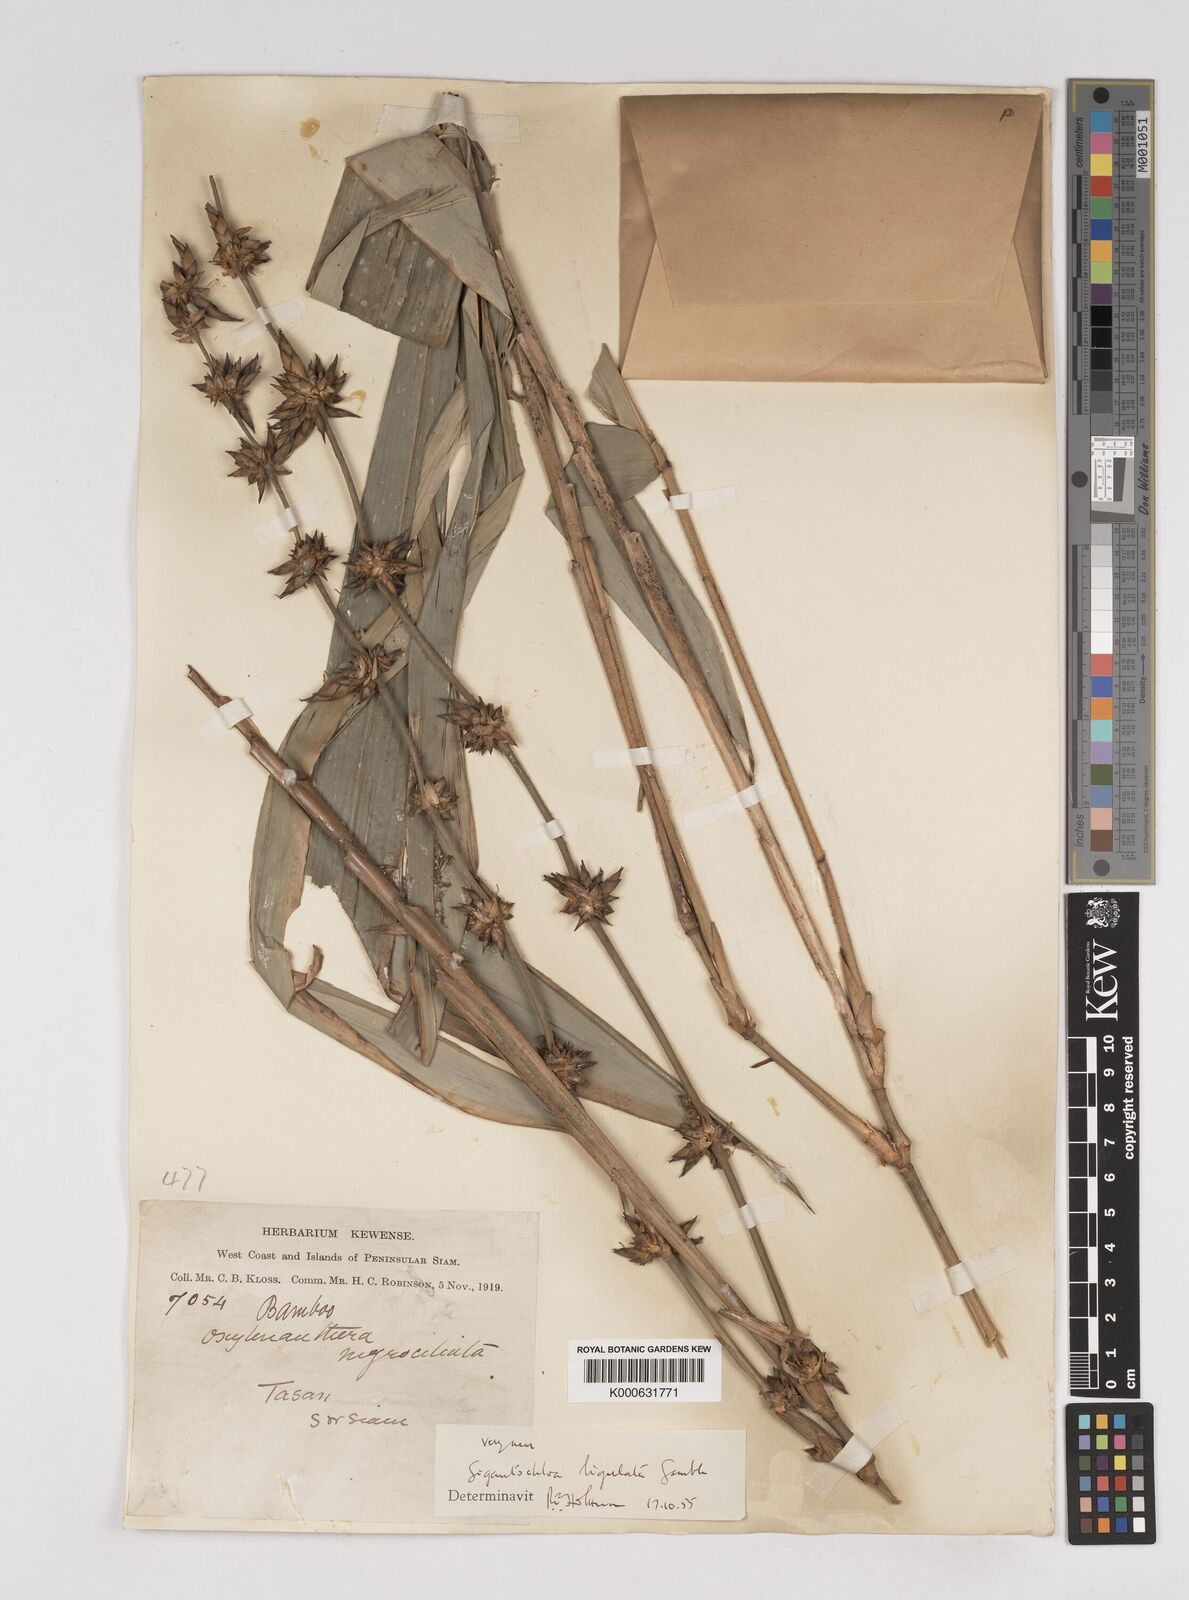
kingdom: Plantae
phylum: Tracheophyta
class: Liliopsida
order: Poales
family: Poaceae
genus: Gigantochloa
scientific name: Gigantochloa ligulata
